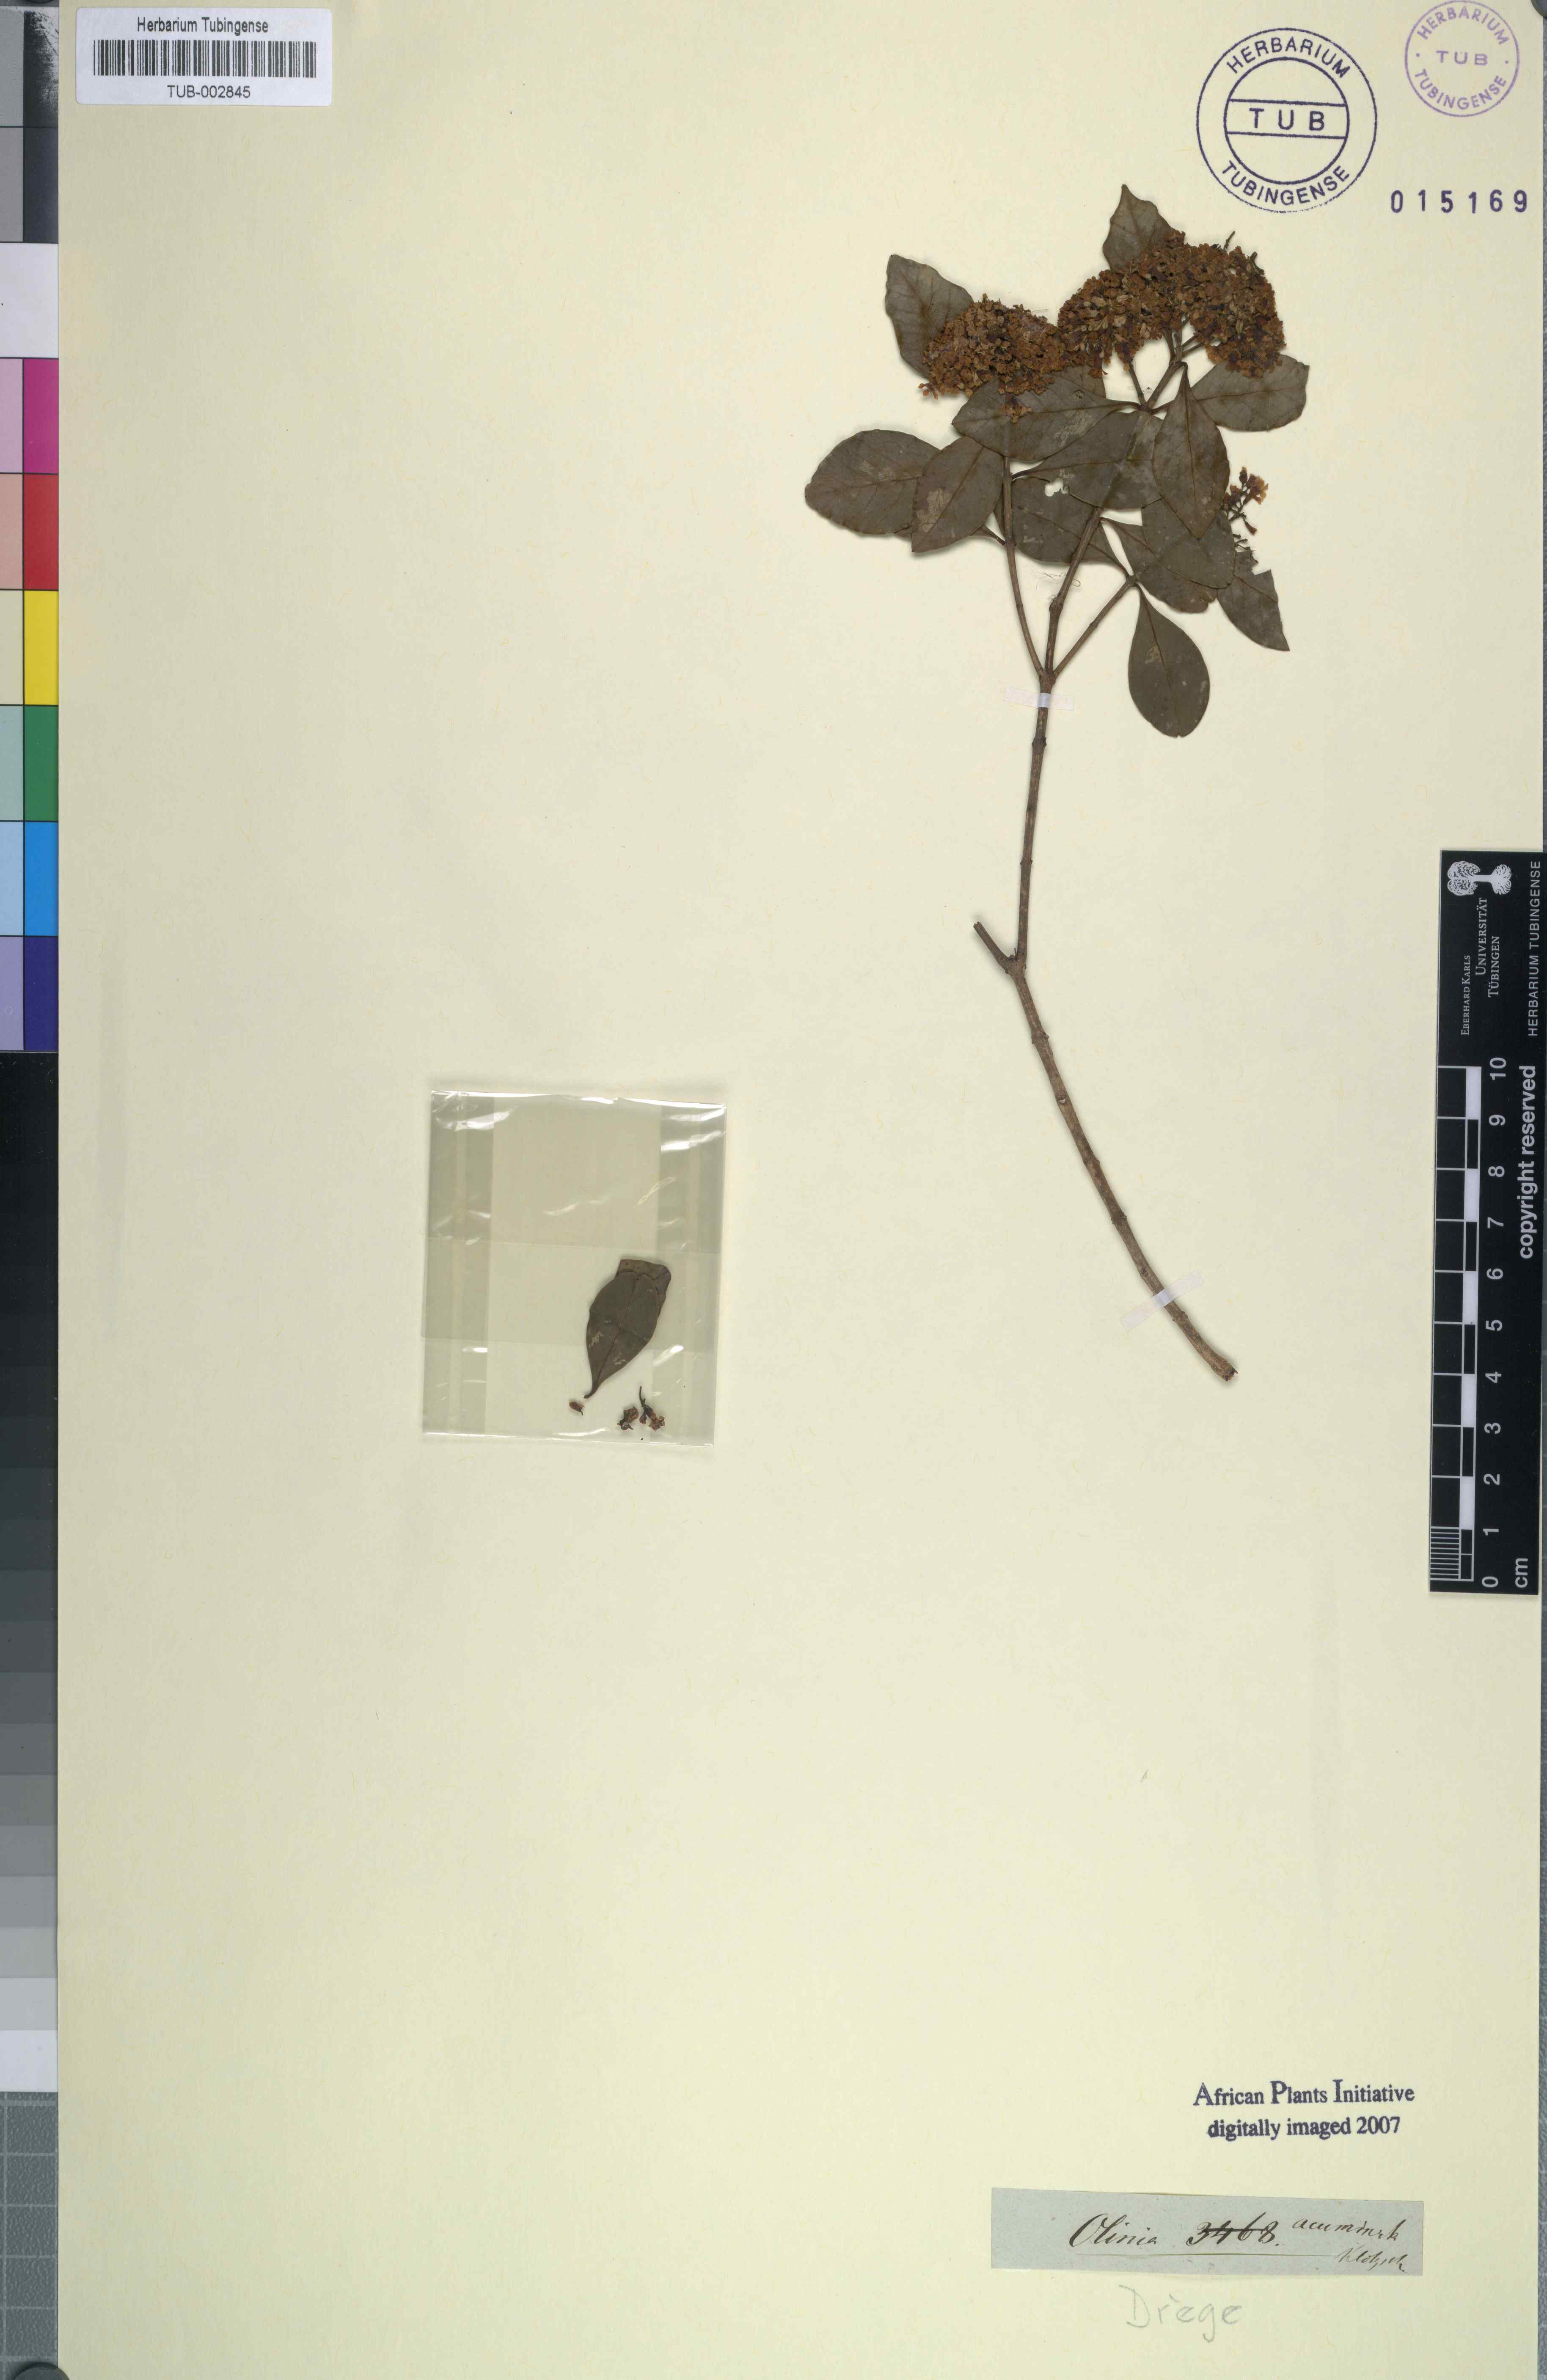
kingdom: Plantae
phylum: Tracheophyta
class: Magnoliopsida
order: Myrtales
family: Penaeaceae
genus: Olinia
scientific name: Olinia ventosa
